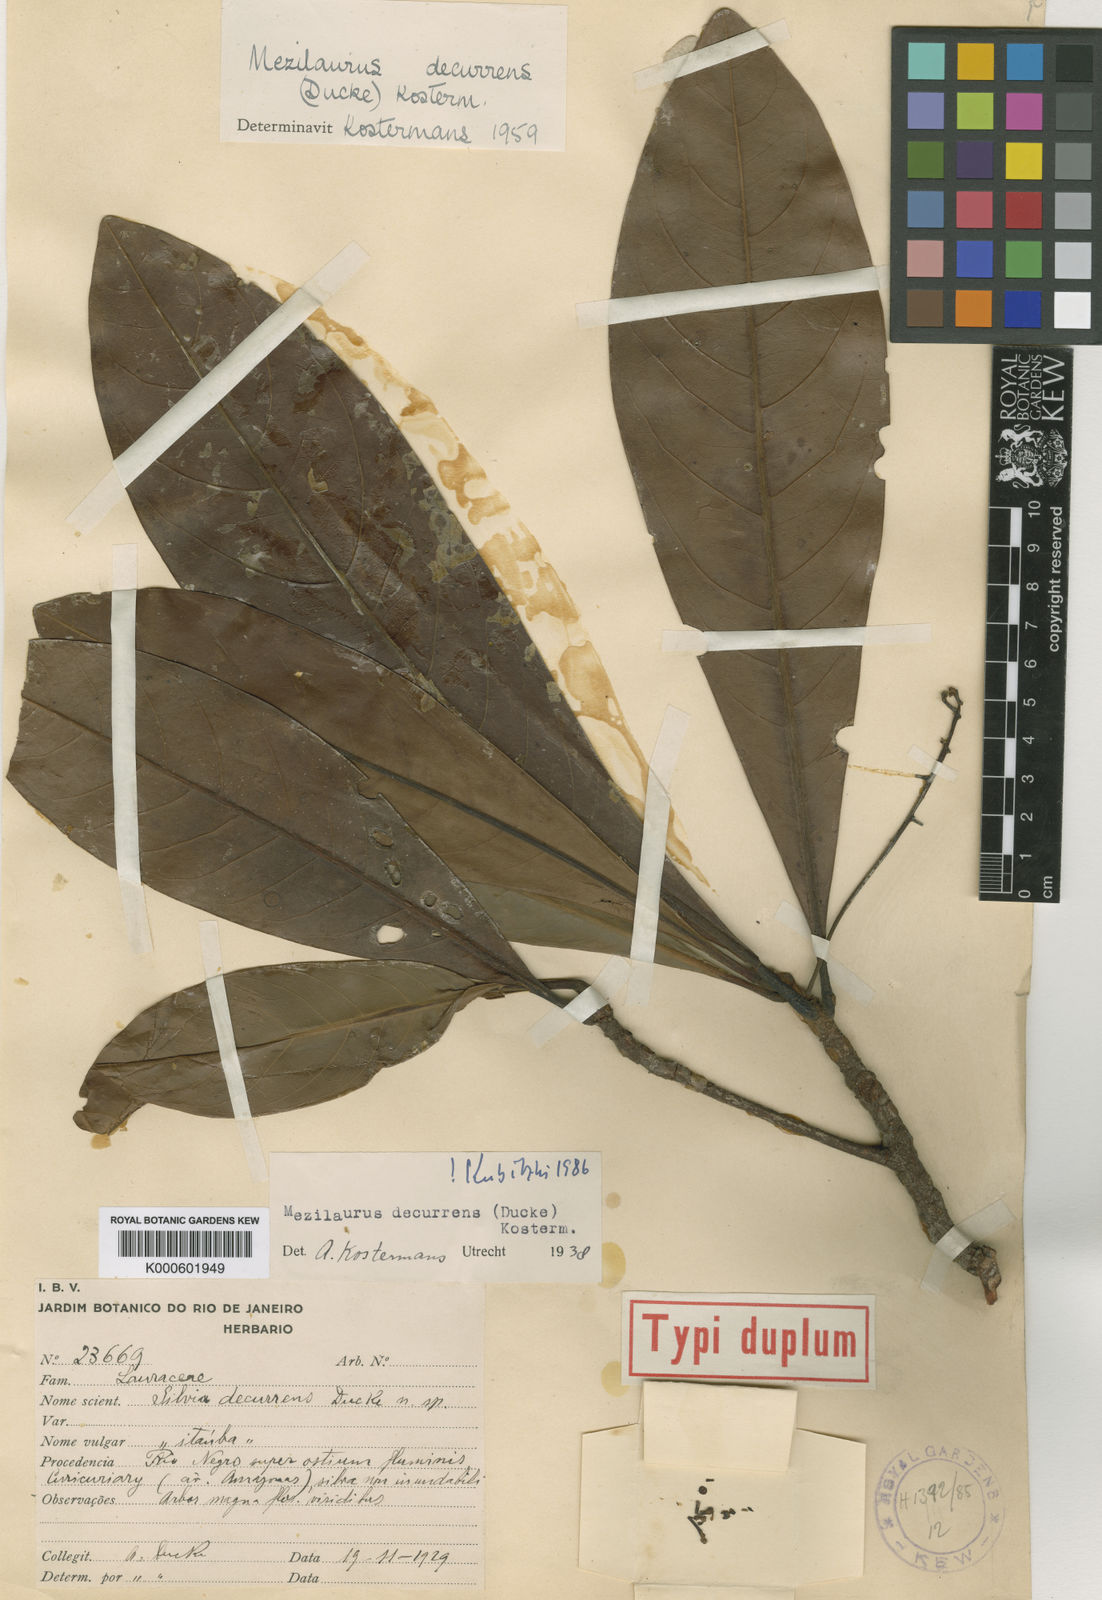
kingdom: Plantae
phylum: Tracheophyta
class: Magnoliopsida
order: Laurales
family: Lauraceae
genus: Mezilaurus
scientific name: Mezilaurus decurrens
